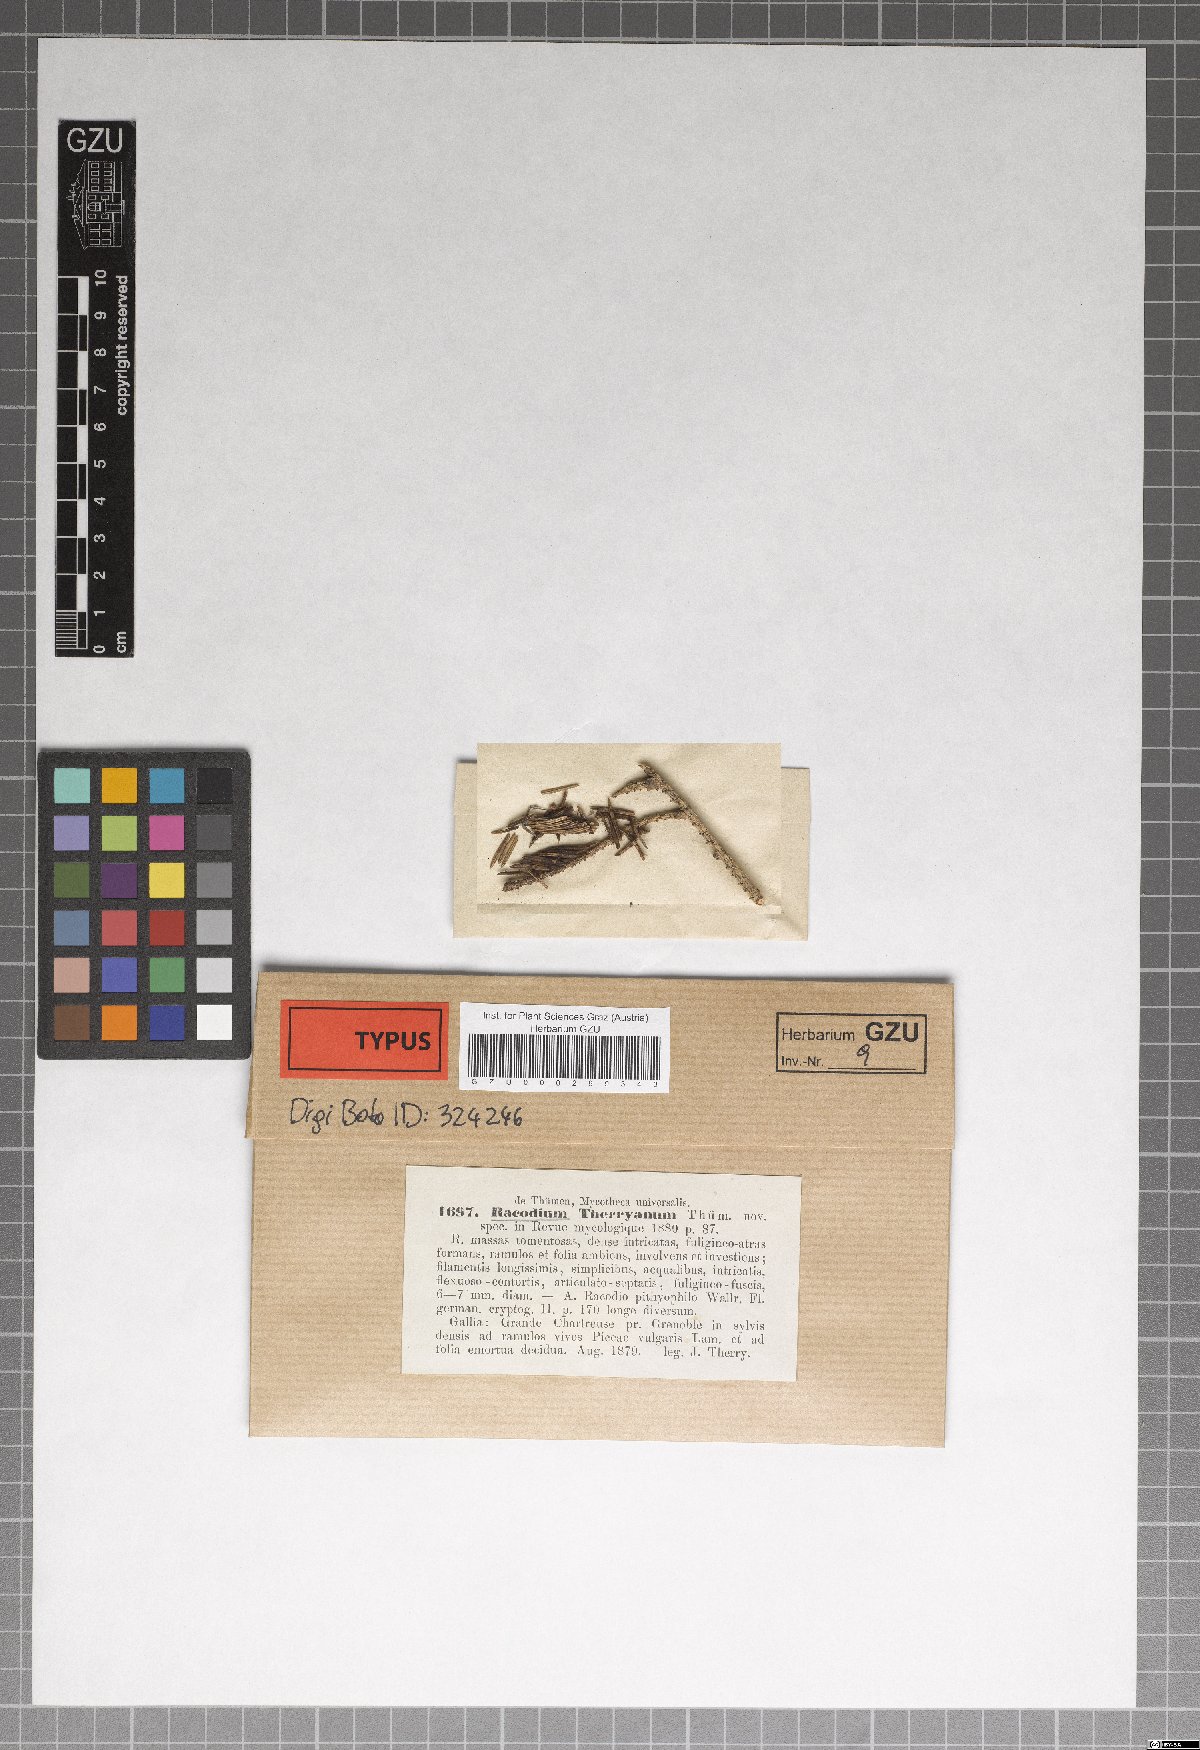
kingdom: Fungi
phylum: Ascomycota
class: Eurotiomycetes
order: Chaetothyriales
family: Herpotrichiellaceae
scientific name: Herpotrichiellaceae
